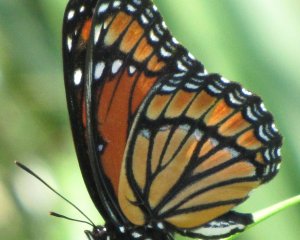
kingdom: Animalia
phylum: Arthropoda
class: Insecta
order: Lepidoptera
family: Nymphalidae
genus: Limenitis
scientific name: Limenitis archippus
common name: Viceroy
